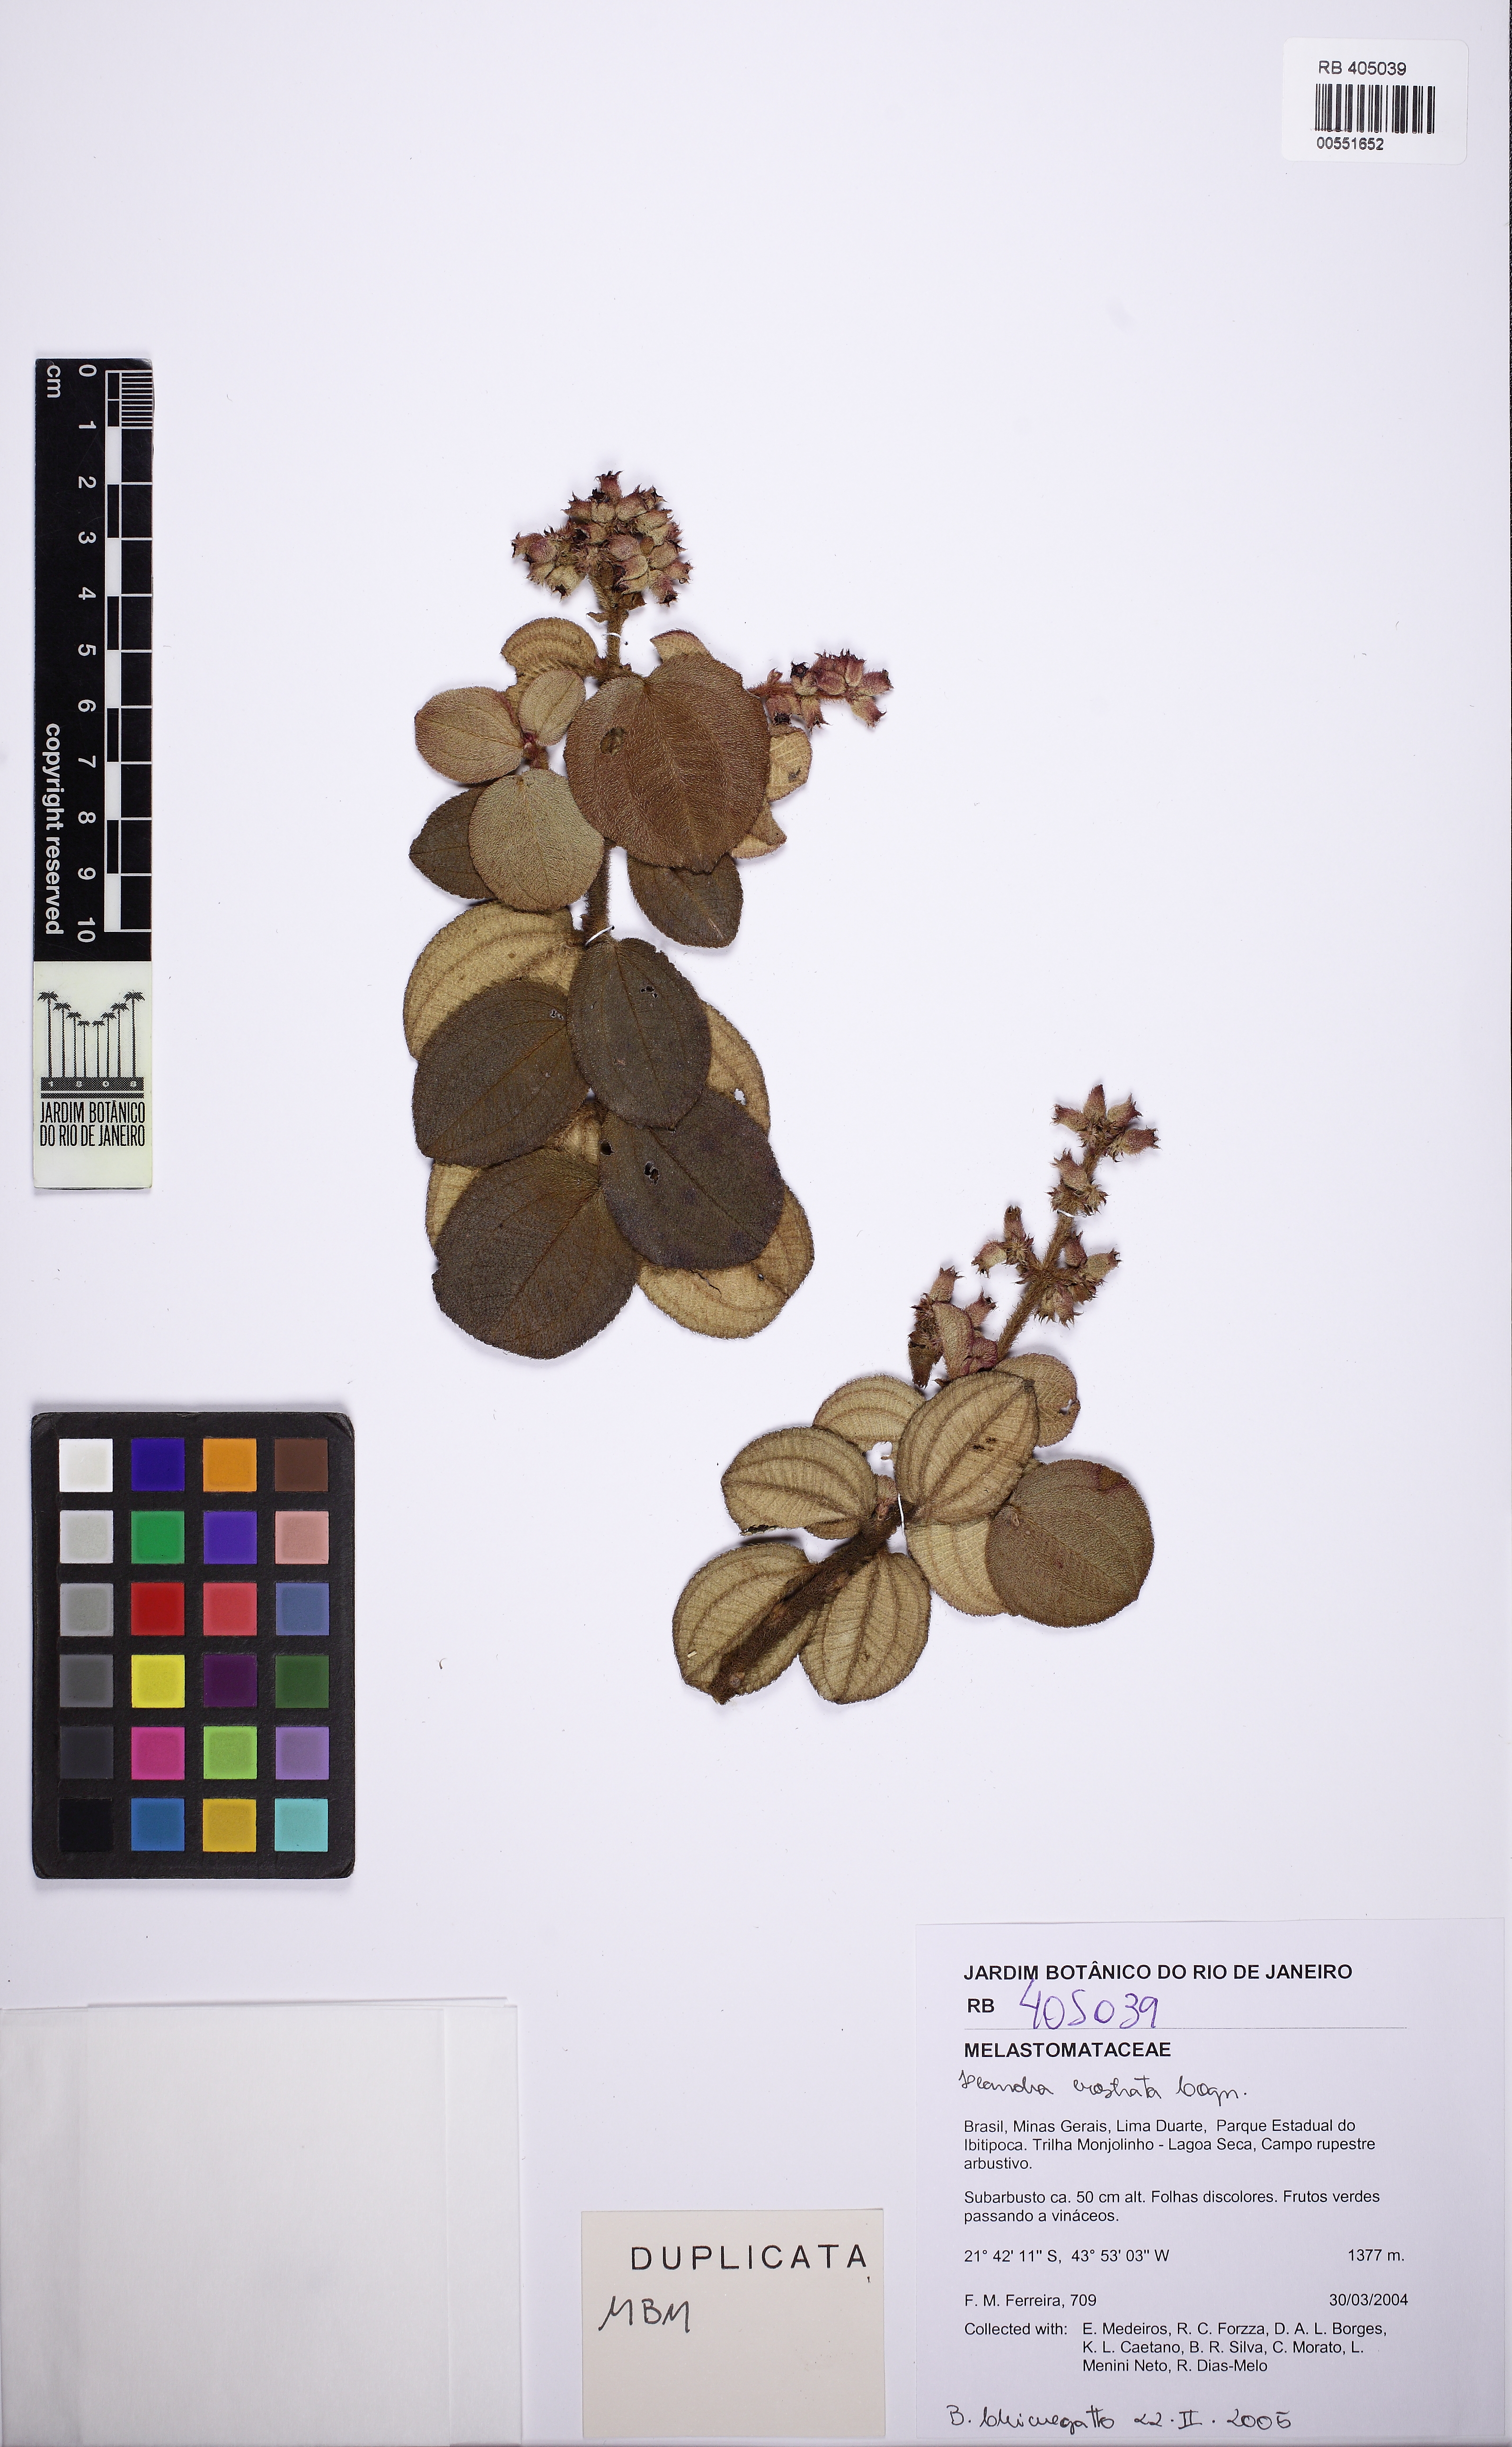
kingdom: Plantae
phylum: Tracheophyta
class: Magnoliopsida
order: Myrtales
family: Melastomataceae
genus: Miconia
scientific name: Miconia erostrata
